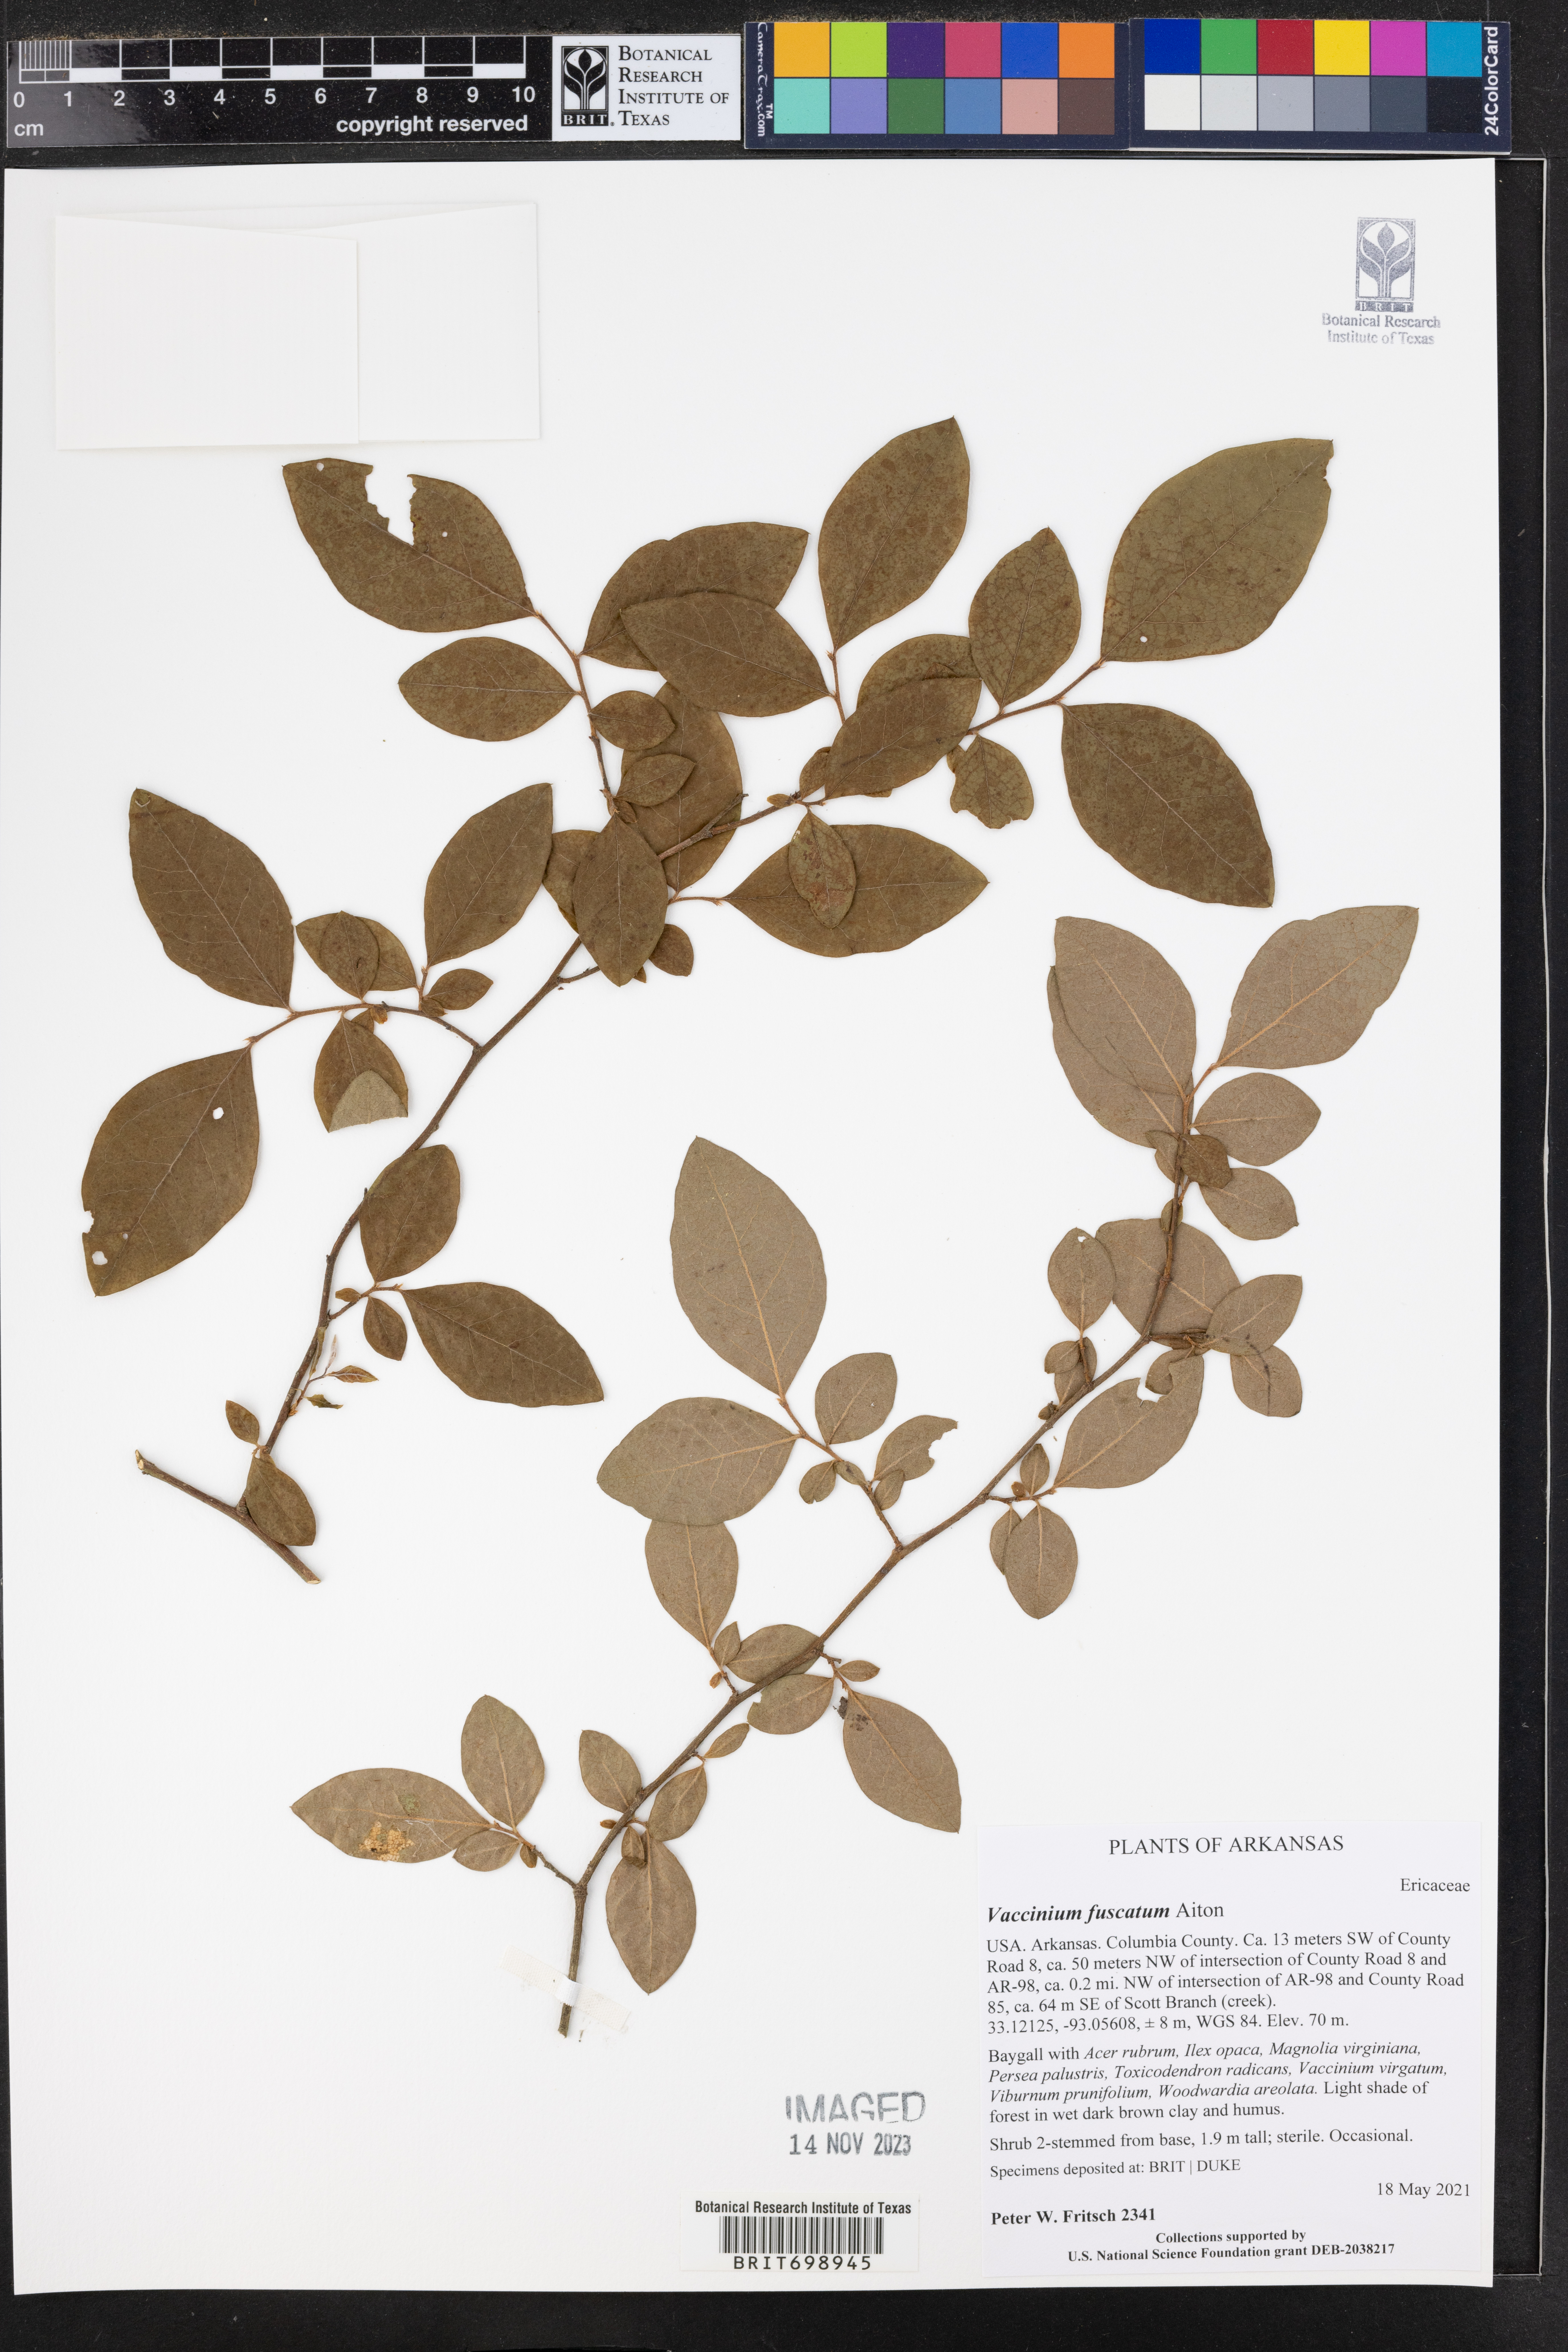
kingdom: Plantae
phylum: Tracheophyta
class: Magnoliopsida
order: Ericales
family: Ericaceae
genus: Vaccinium
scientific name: Vaccinium corymbosum
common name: Blueberry
